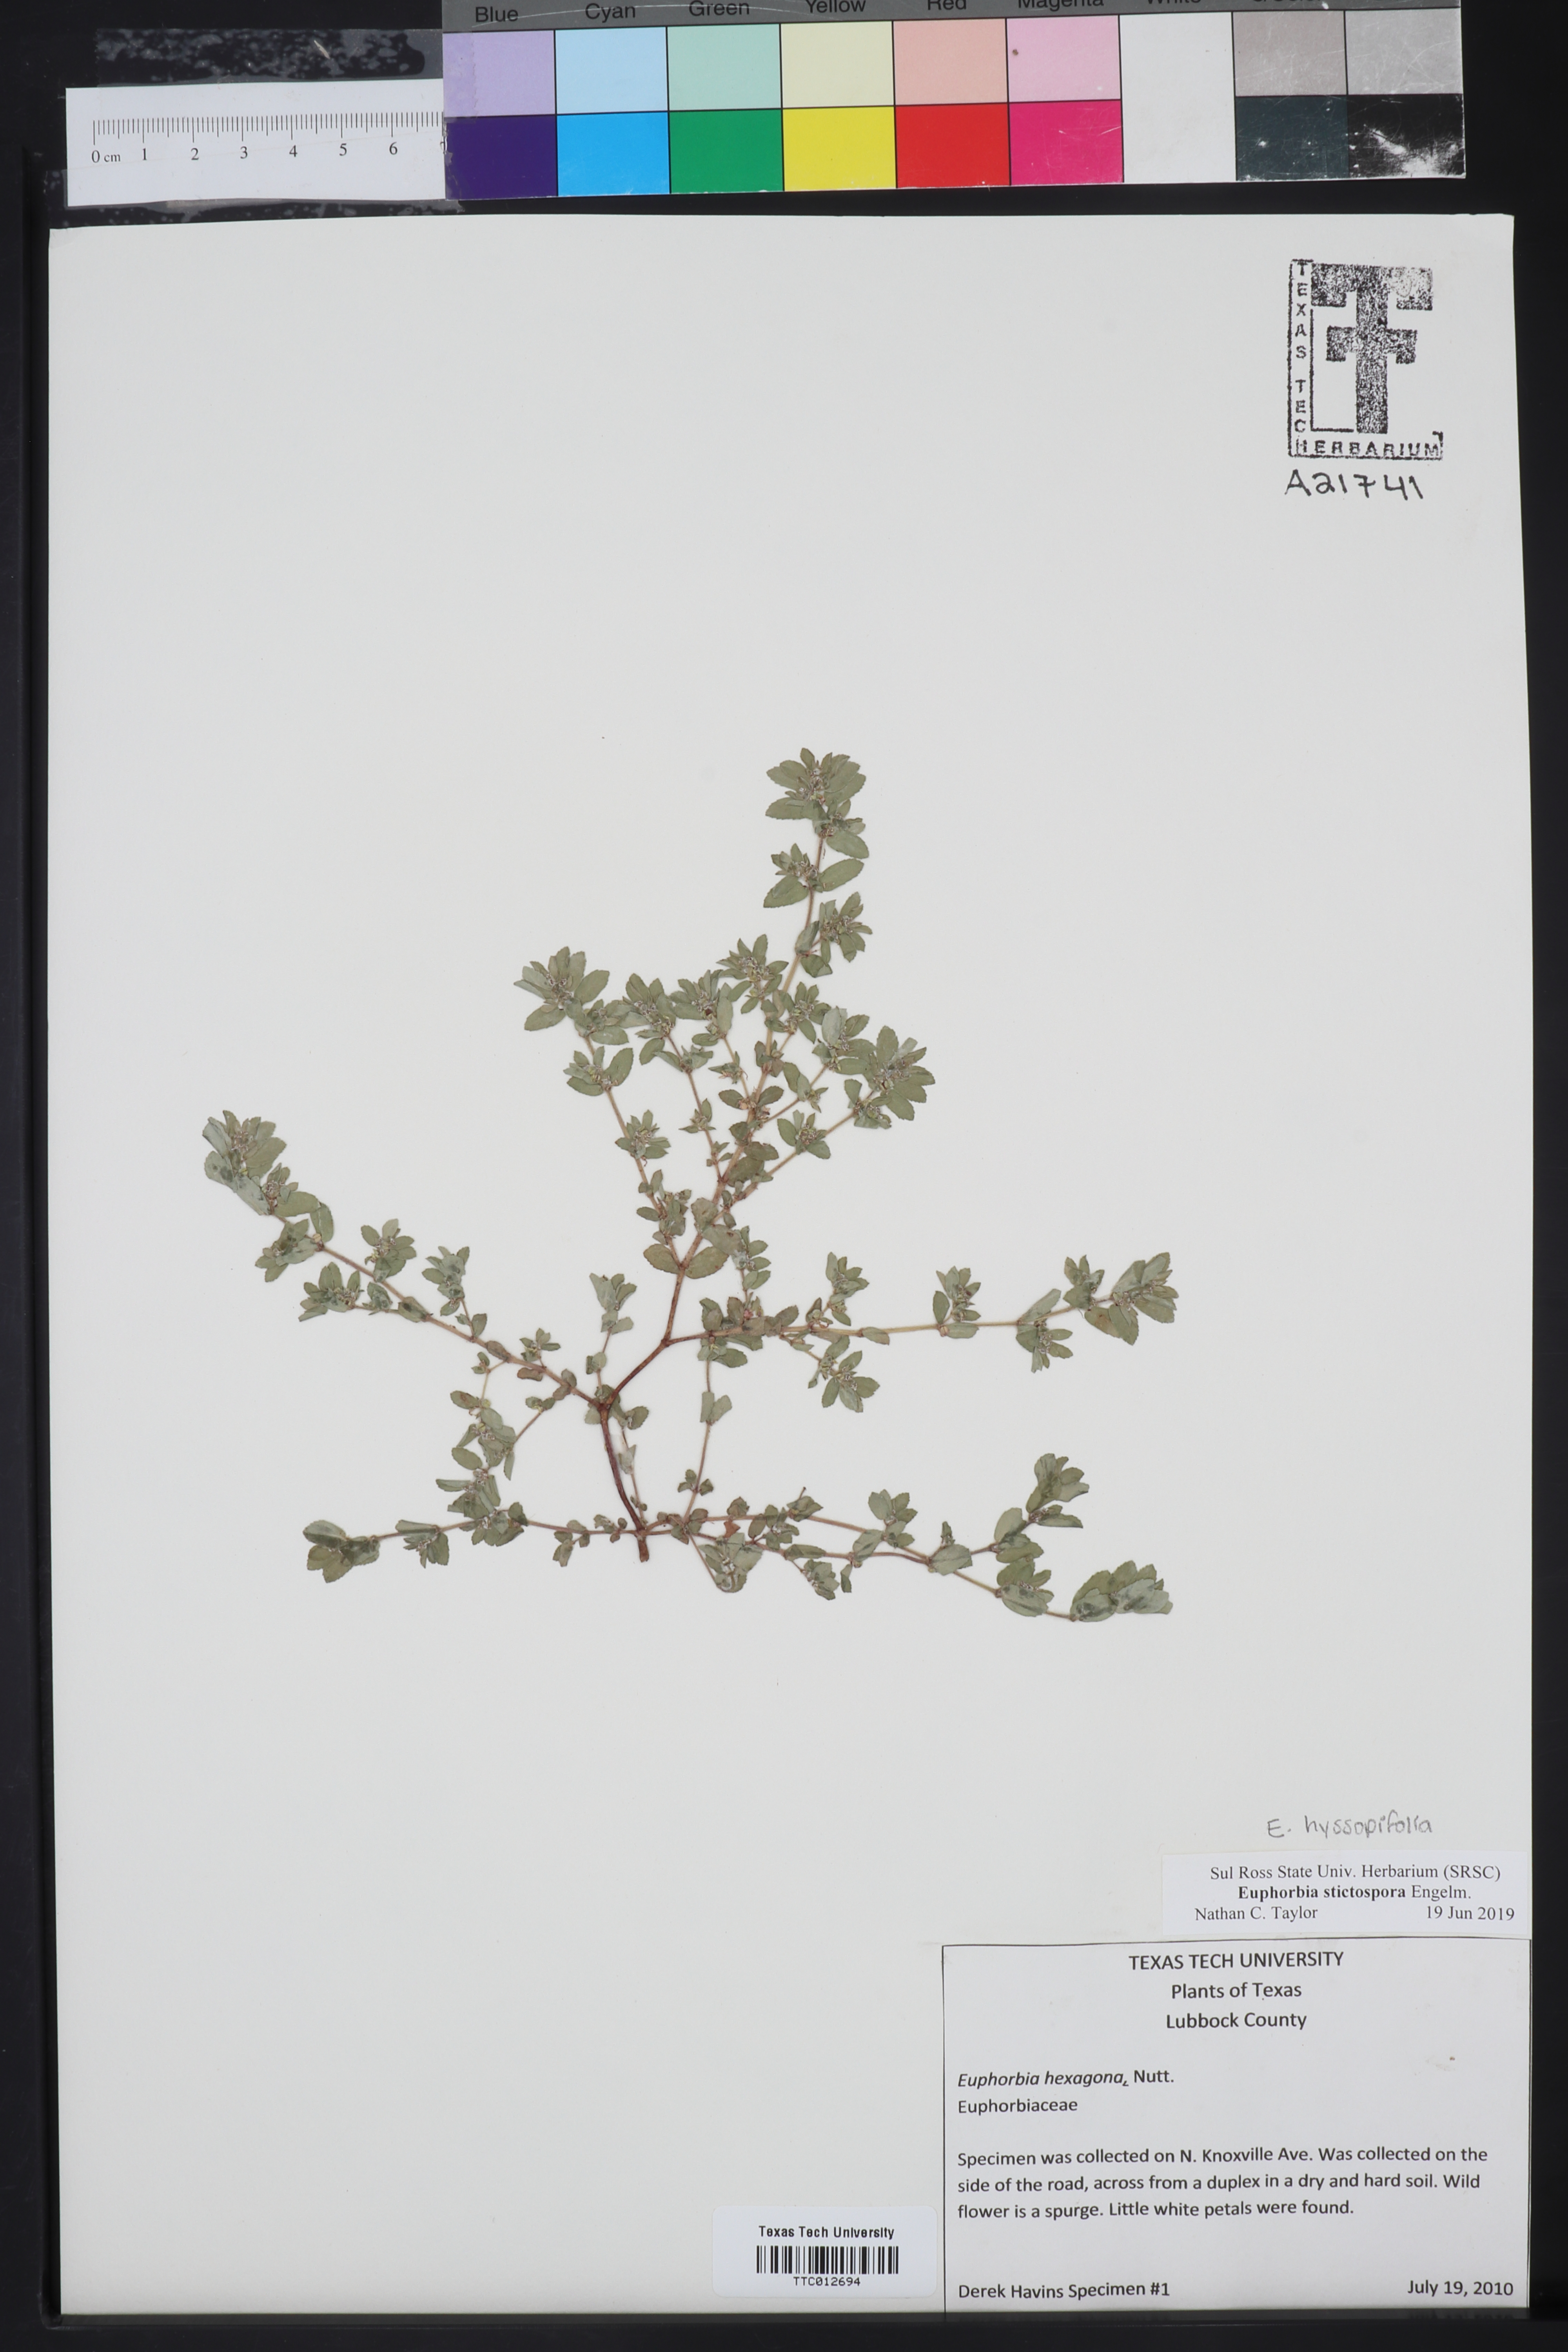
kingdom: Plantae
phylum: Tracheophyta
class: Magnoliopsida
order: Malpighiales
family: Euphorbiaceae
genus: Euphorbia
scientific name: Euphorbia stictospora
